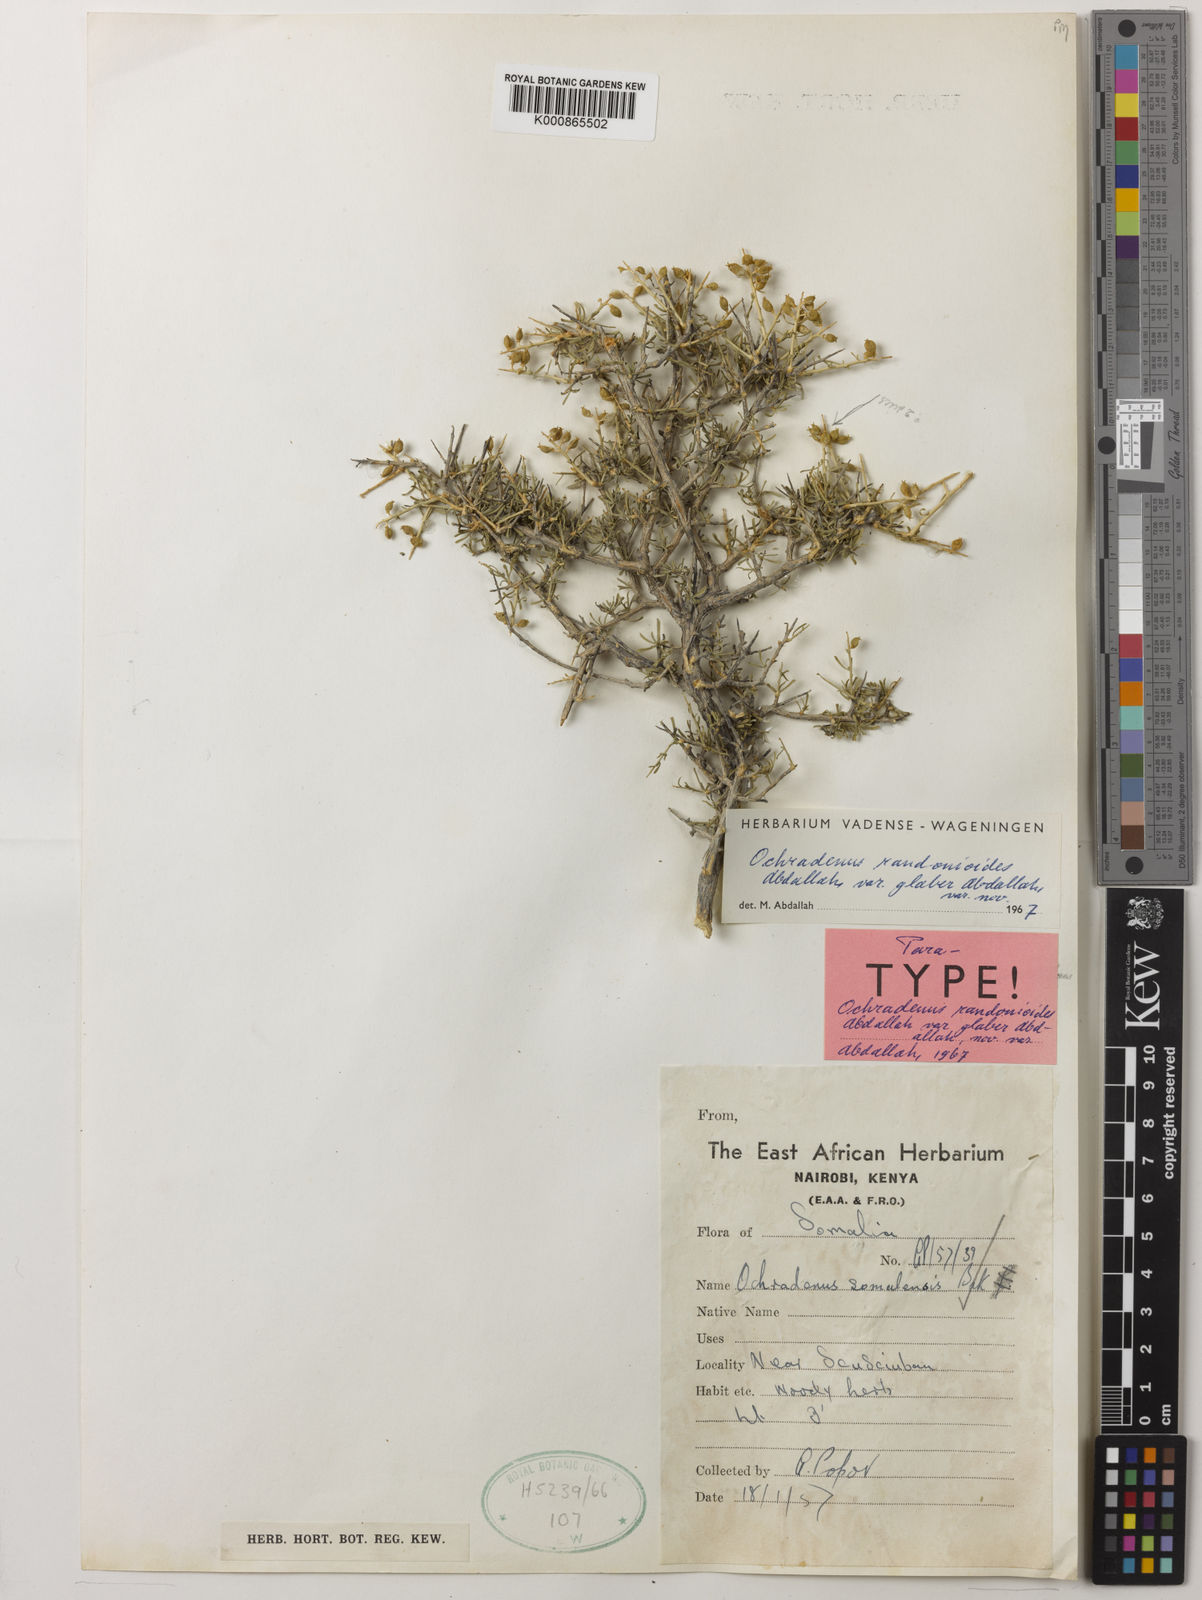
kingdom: Plantae
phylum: Tracheophyta
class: Magnoliopsida
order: Brassicales
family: Resedaceae
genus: Ochradenus
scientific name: Ochradenus somalensis
